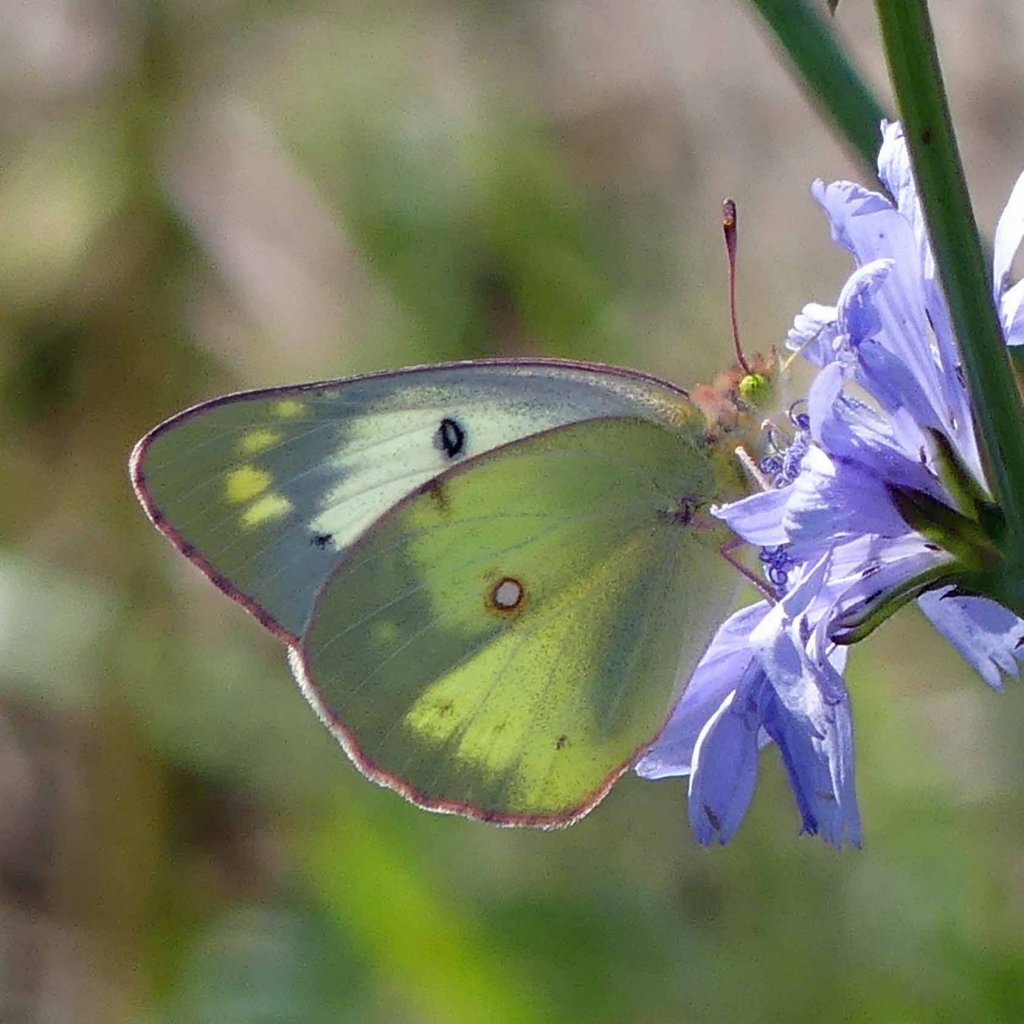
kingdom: Animalia
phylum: Arthropoda
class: Insecta
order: Lepidoptera
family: Pieridae
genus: Colias
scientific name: Colias philodice
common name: Clouded Sulphur
